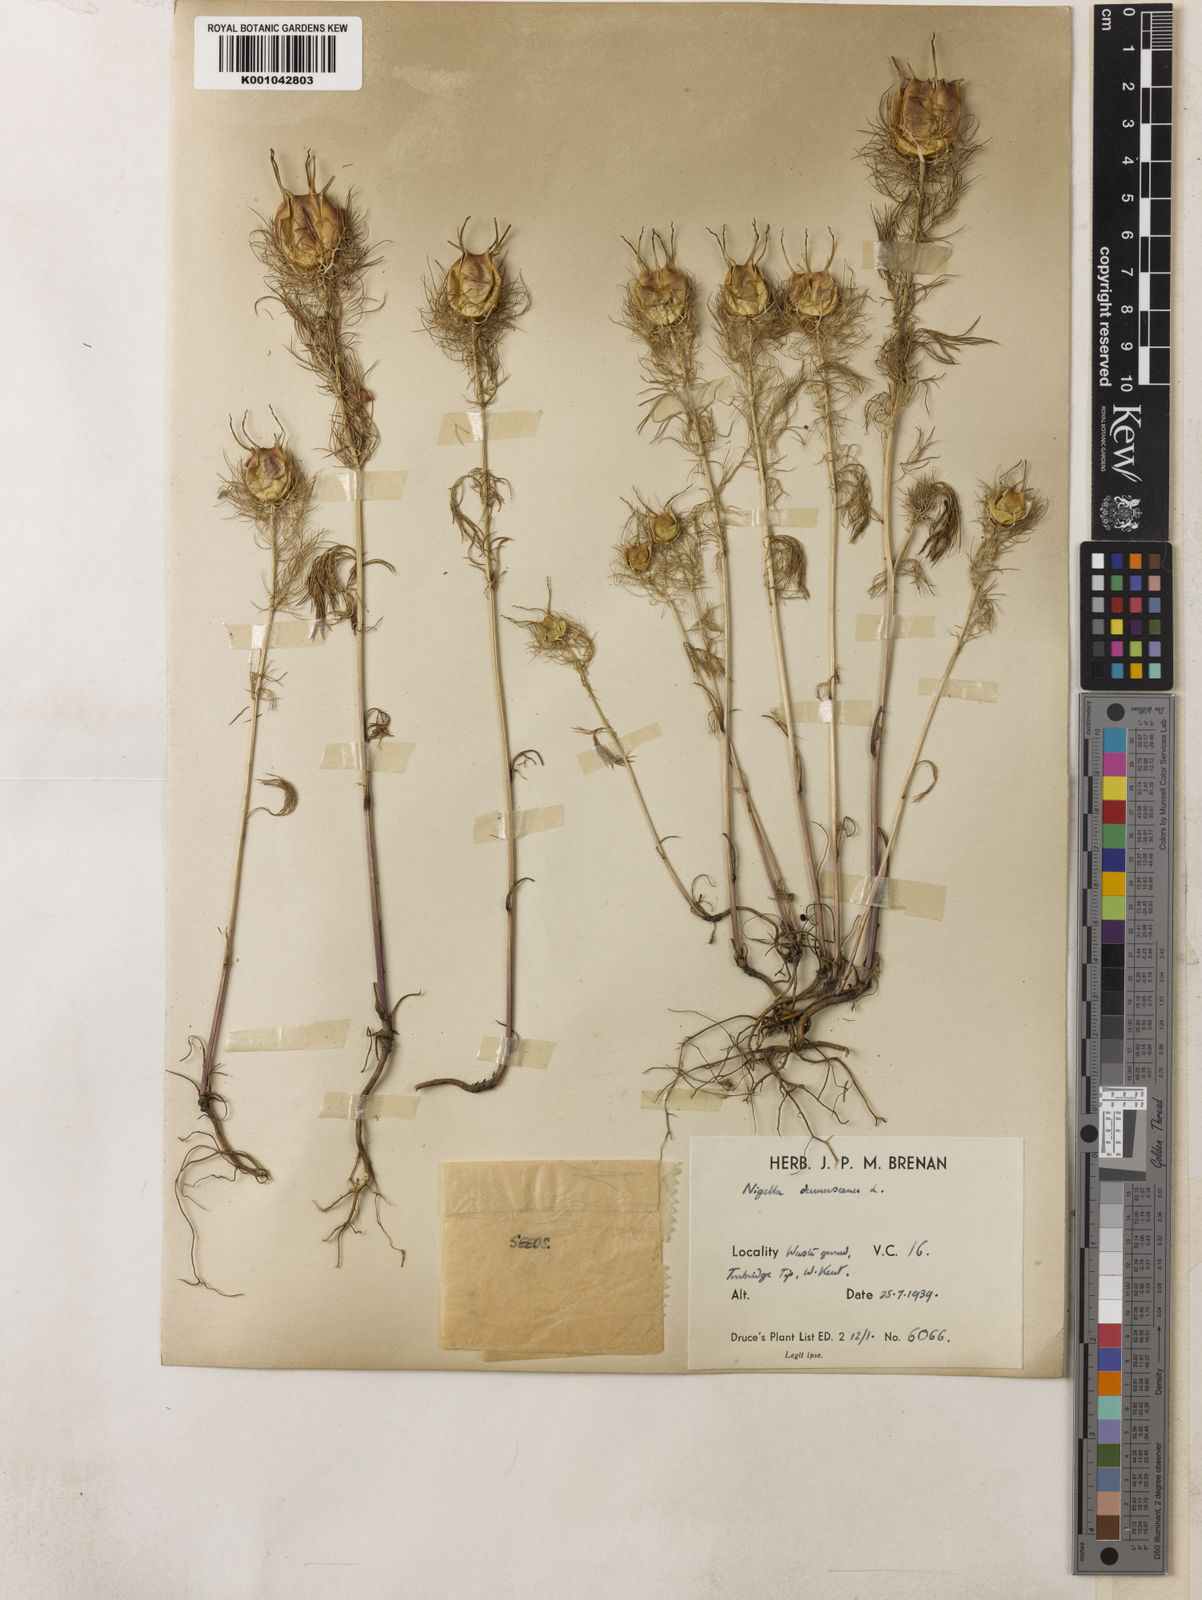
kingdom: Plantae
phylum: Tracheophyta
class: Magnoliopsida
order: Ranunculales
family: Ranunculaceae
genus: Nigella
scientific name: Nigella damascena
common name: Love-in-a-mist
